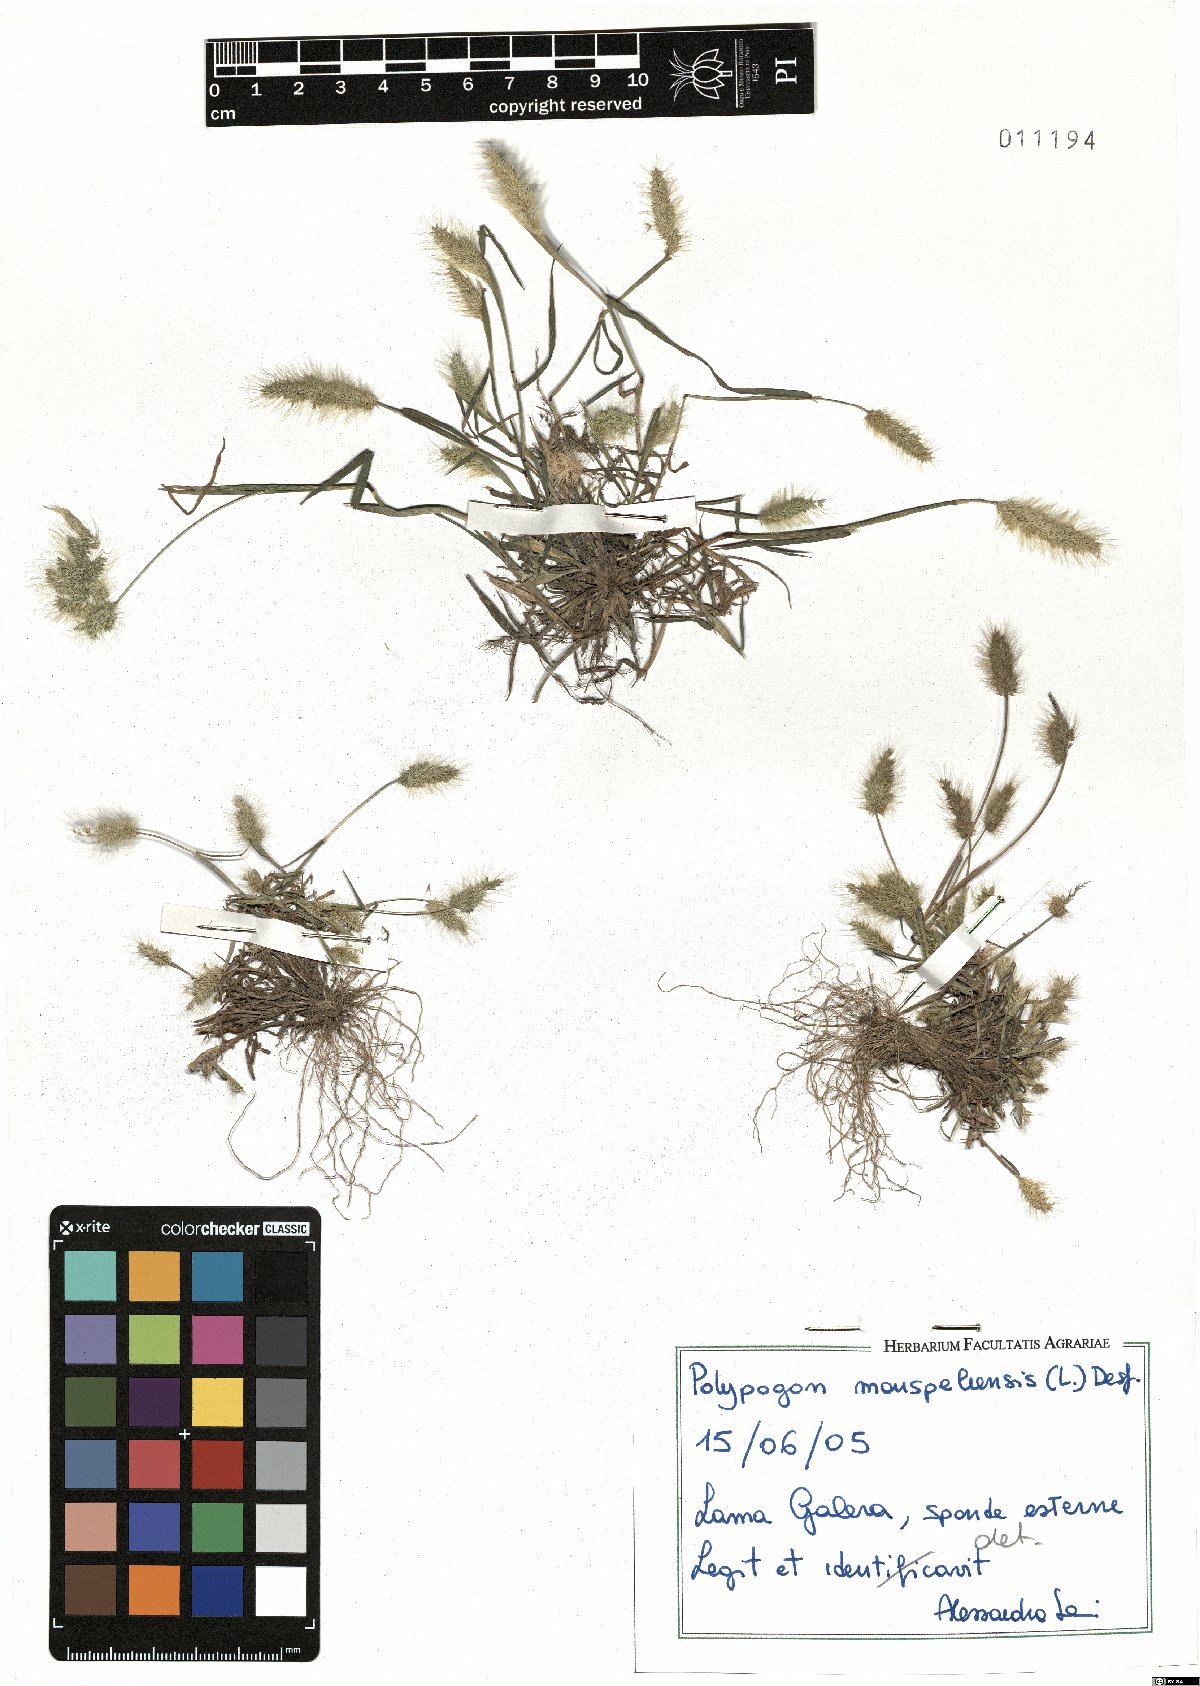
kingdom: Plantae
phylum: Tracheophyta
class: Liliopsida
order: Poales
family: Poaceae
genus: Polypogon
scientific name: Polypogon monspeliensis
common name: Annual rabbitsfoot grass
